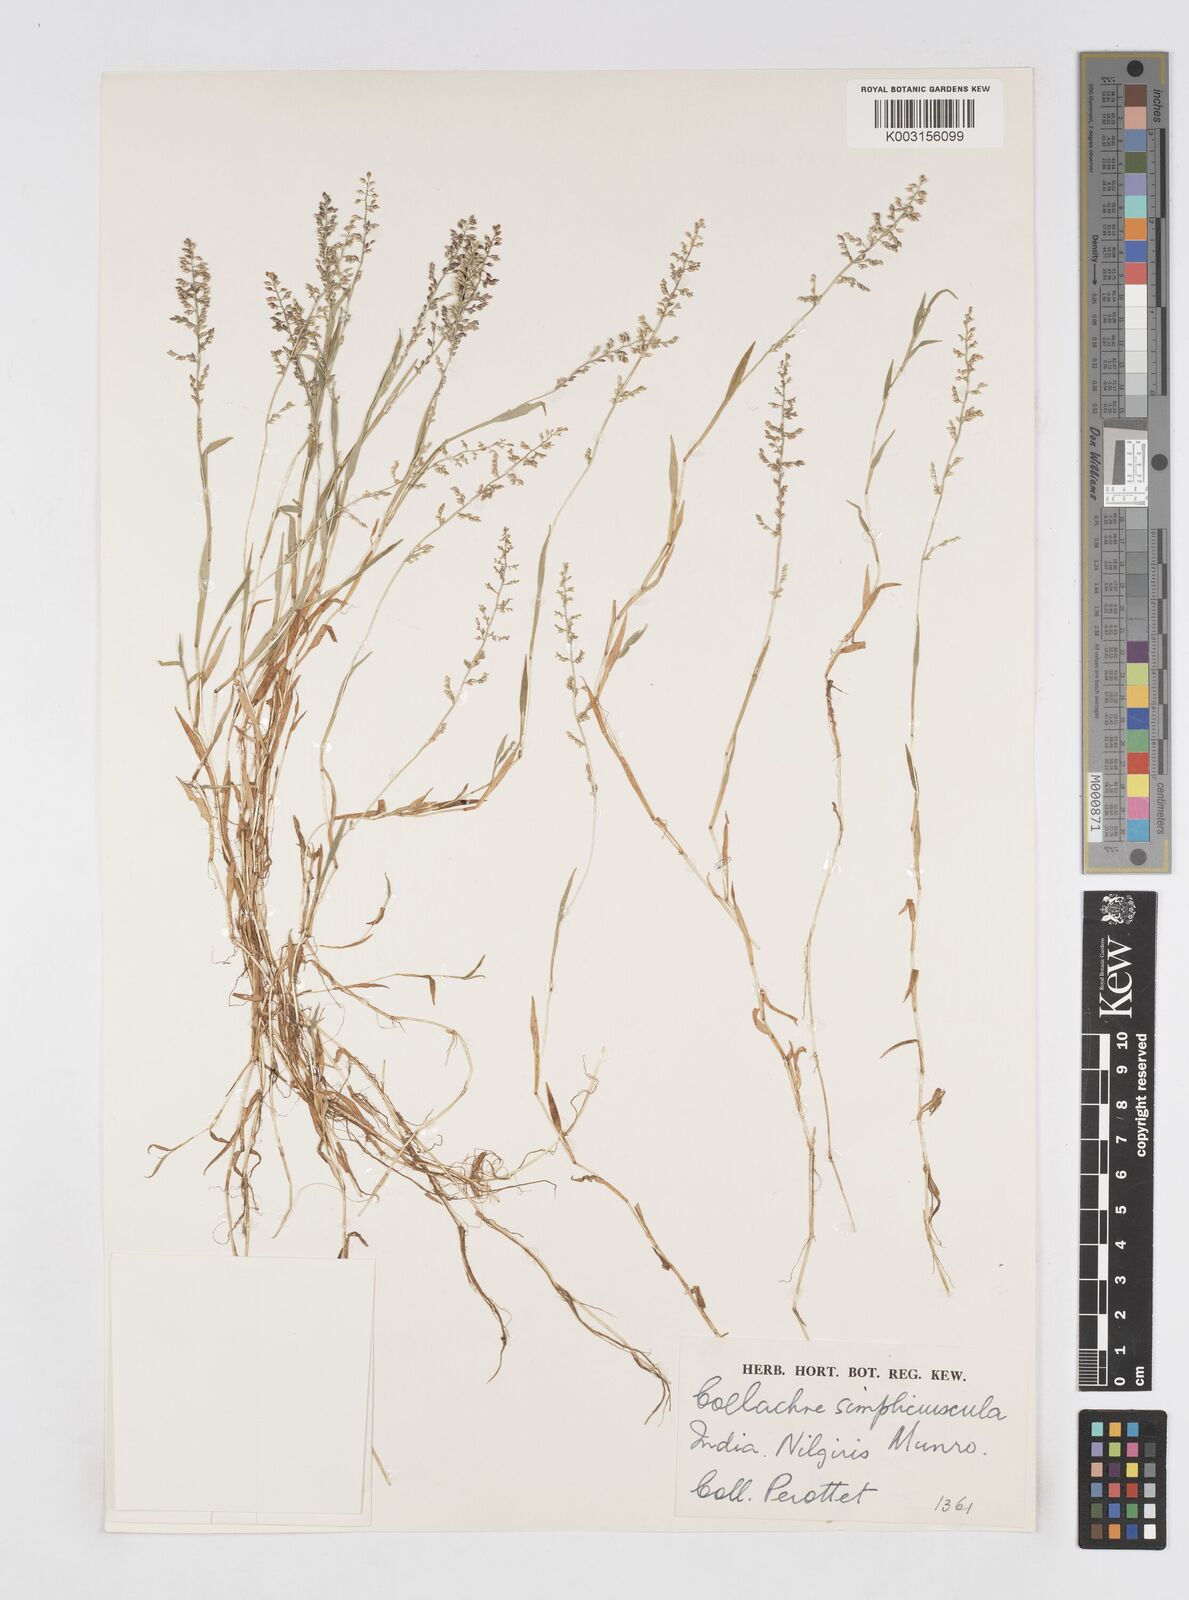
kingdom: Plantae
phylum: Tracheophyta
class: Liliopsida
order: Poales
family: Poaceae
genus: Coelachne
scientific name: Coelachne simpliciuscula
